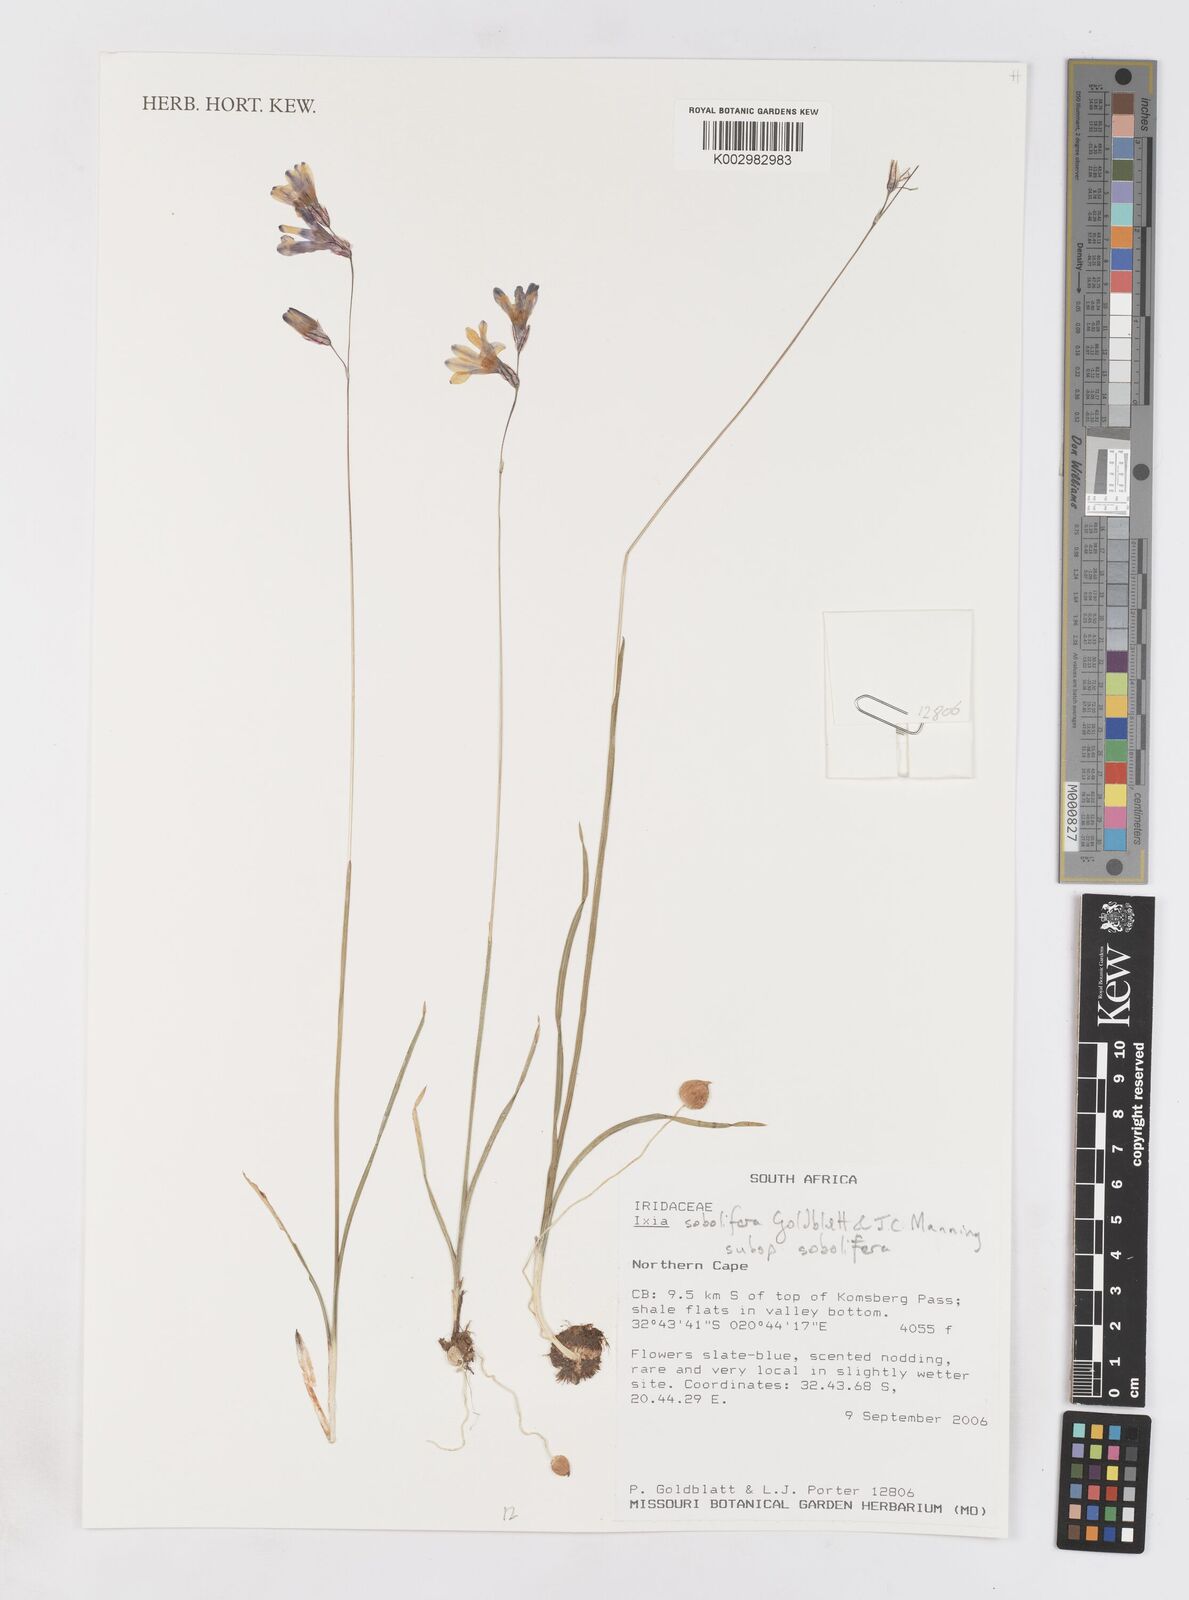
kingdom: Plantae
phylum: Tracheophyta
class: Liliopsida
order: Asparagales
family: Iridaceae
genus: Ixia
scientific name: Ixia sobolifera
